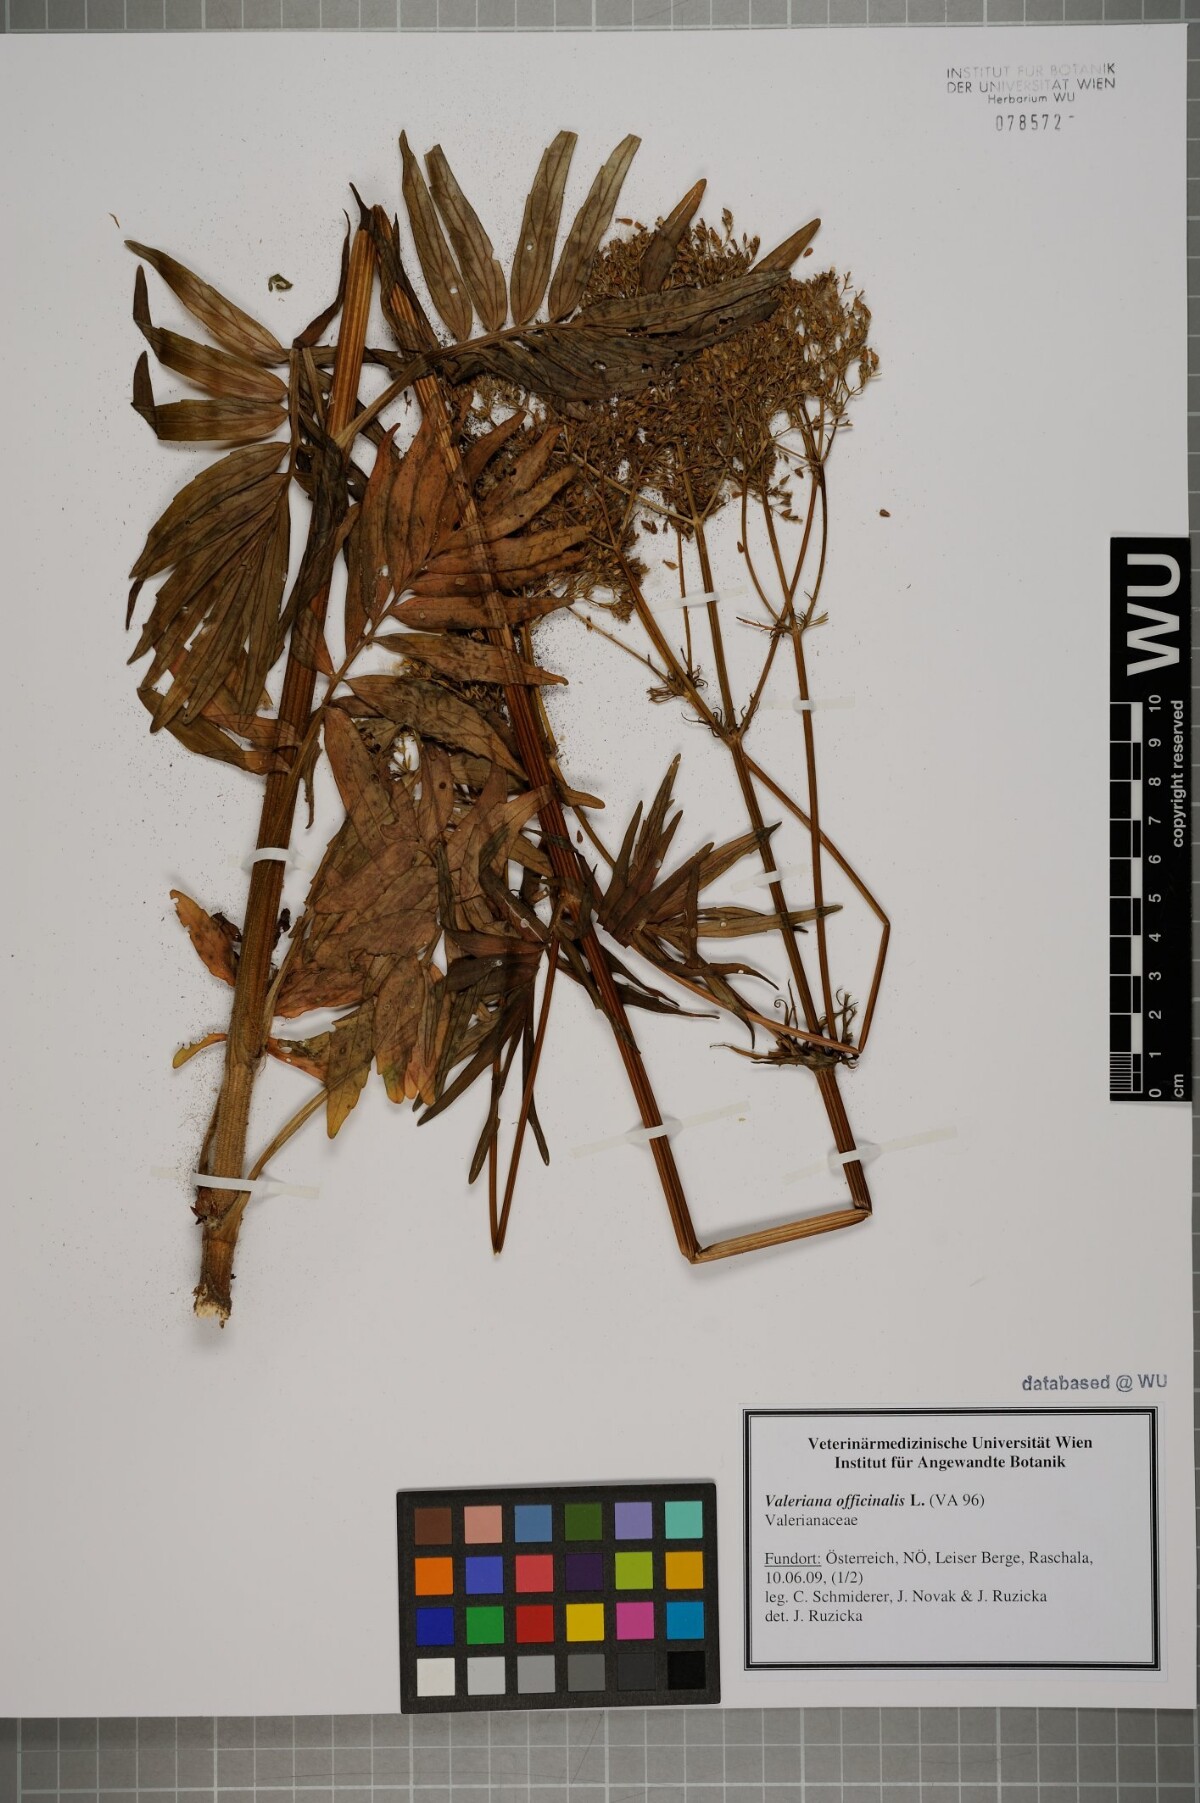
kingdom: Plantae
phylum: Tracheophyta
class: Magnoliopsida
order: Dipsacales
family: Caprifoliaceae
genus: Valeriana
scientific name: Valeriana officinalis
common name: Common valerian
